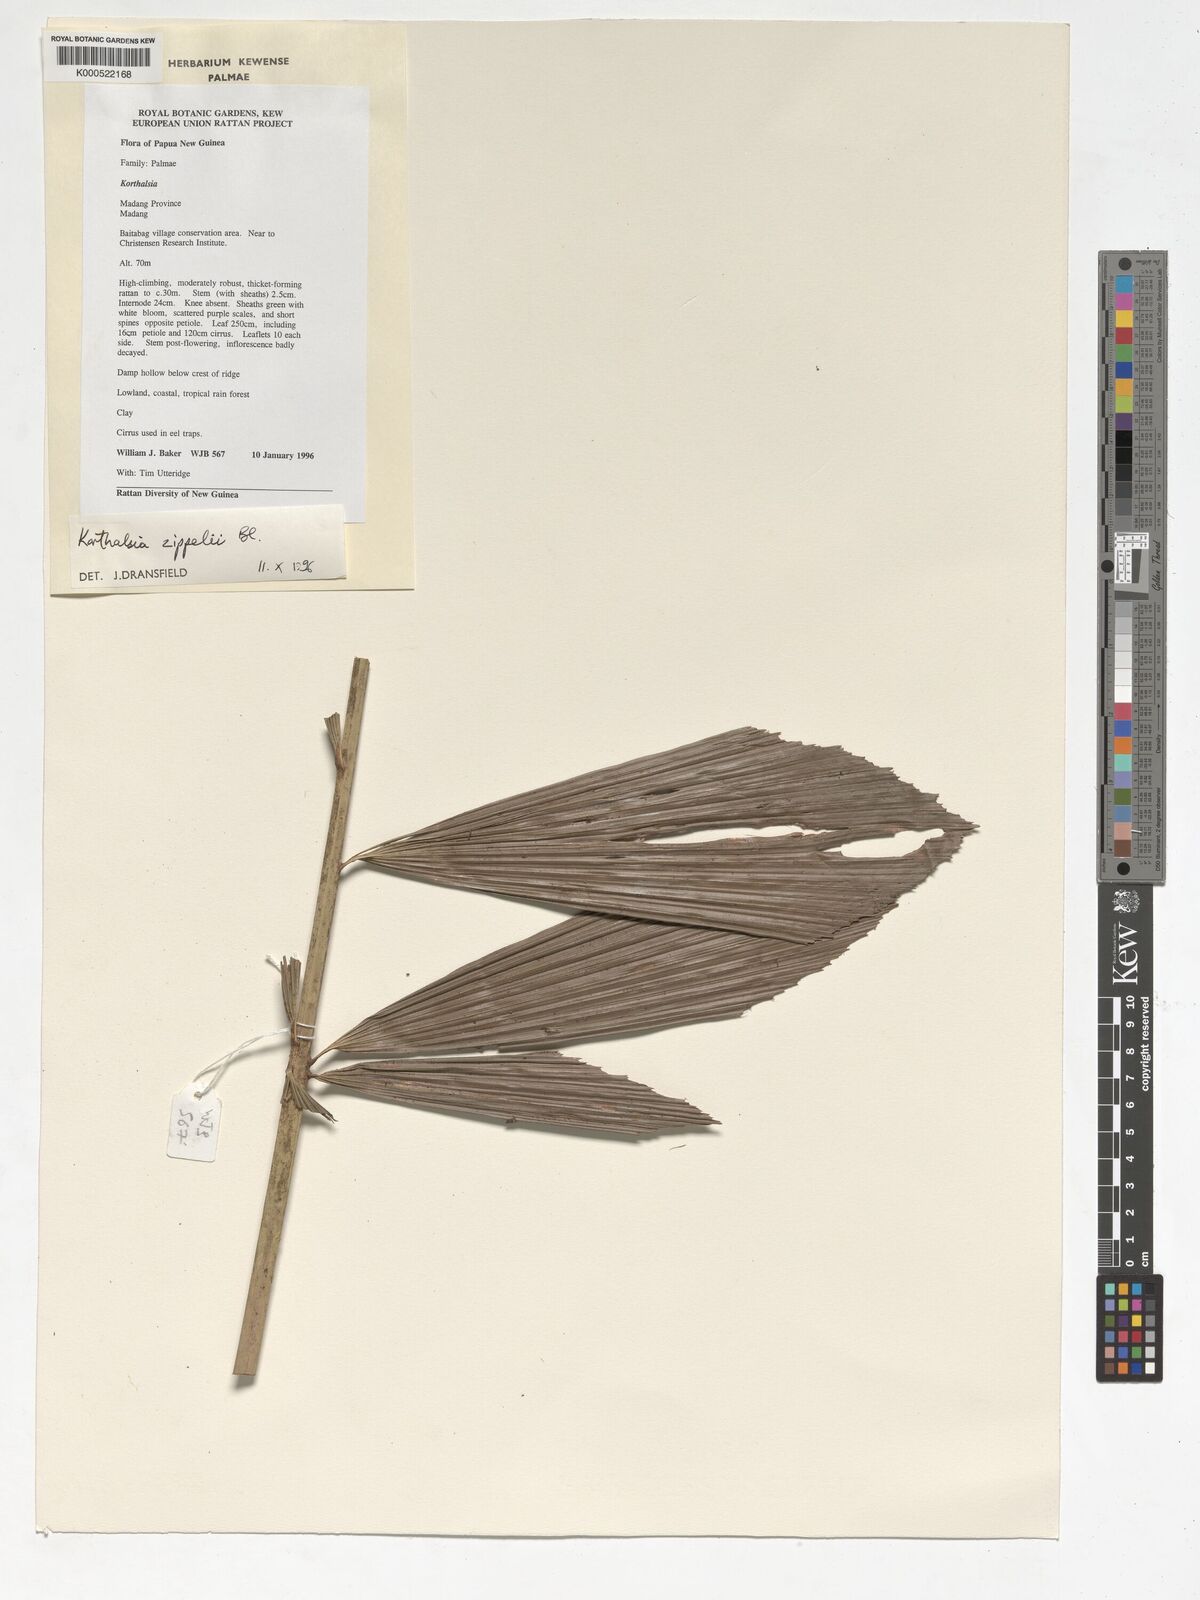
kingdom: Plantae
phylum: Tracheophyta
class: Liliopsida
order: Arecales
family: Arecaceae
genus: Korthalsia
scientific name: Korthalsia zippelii
